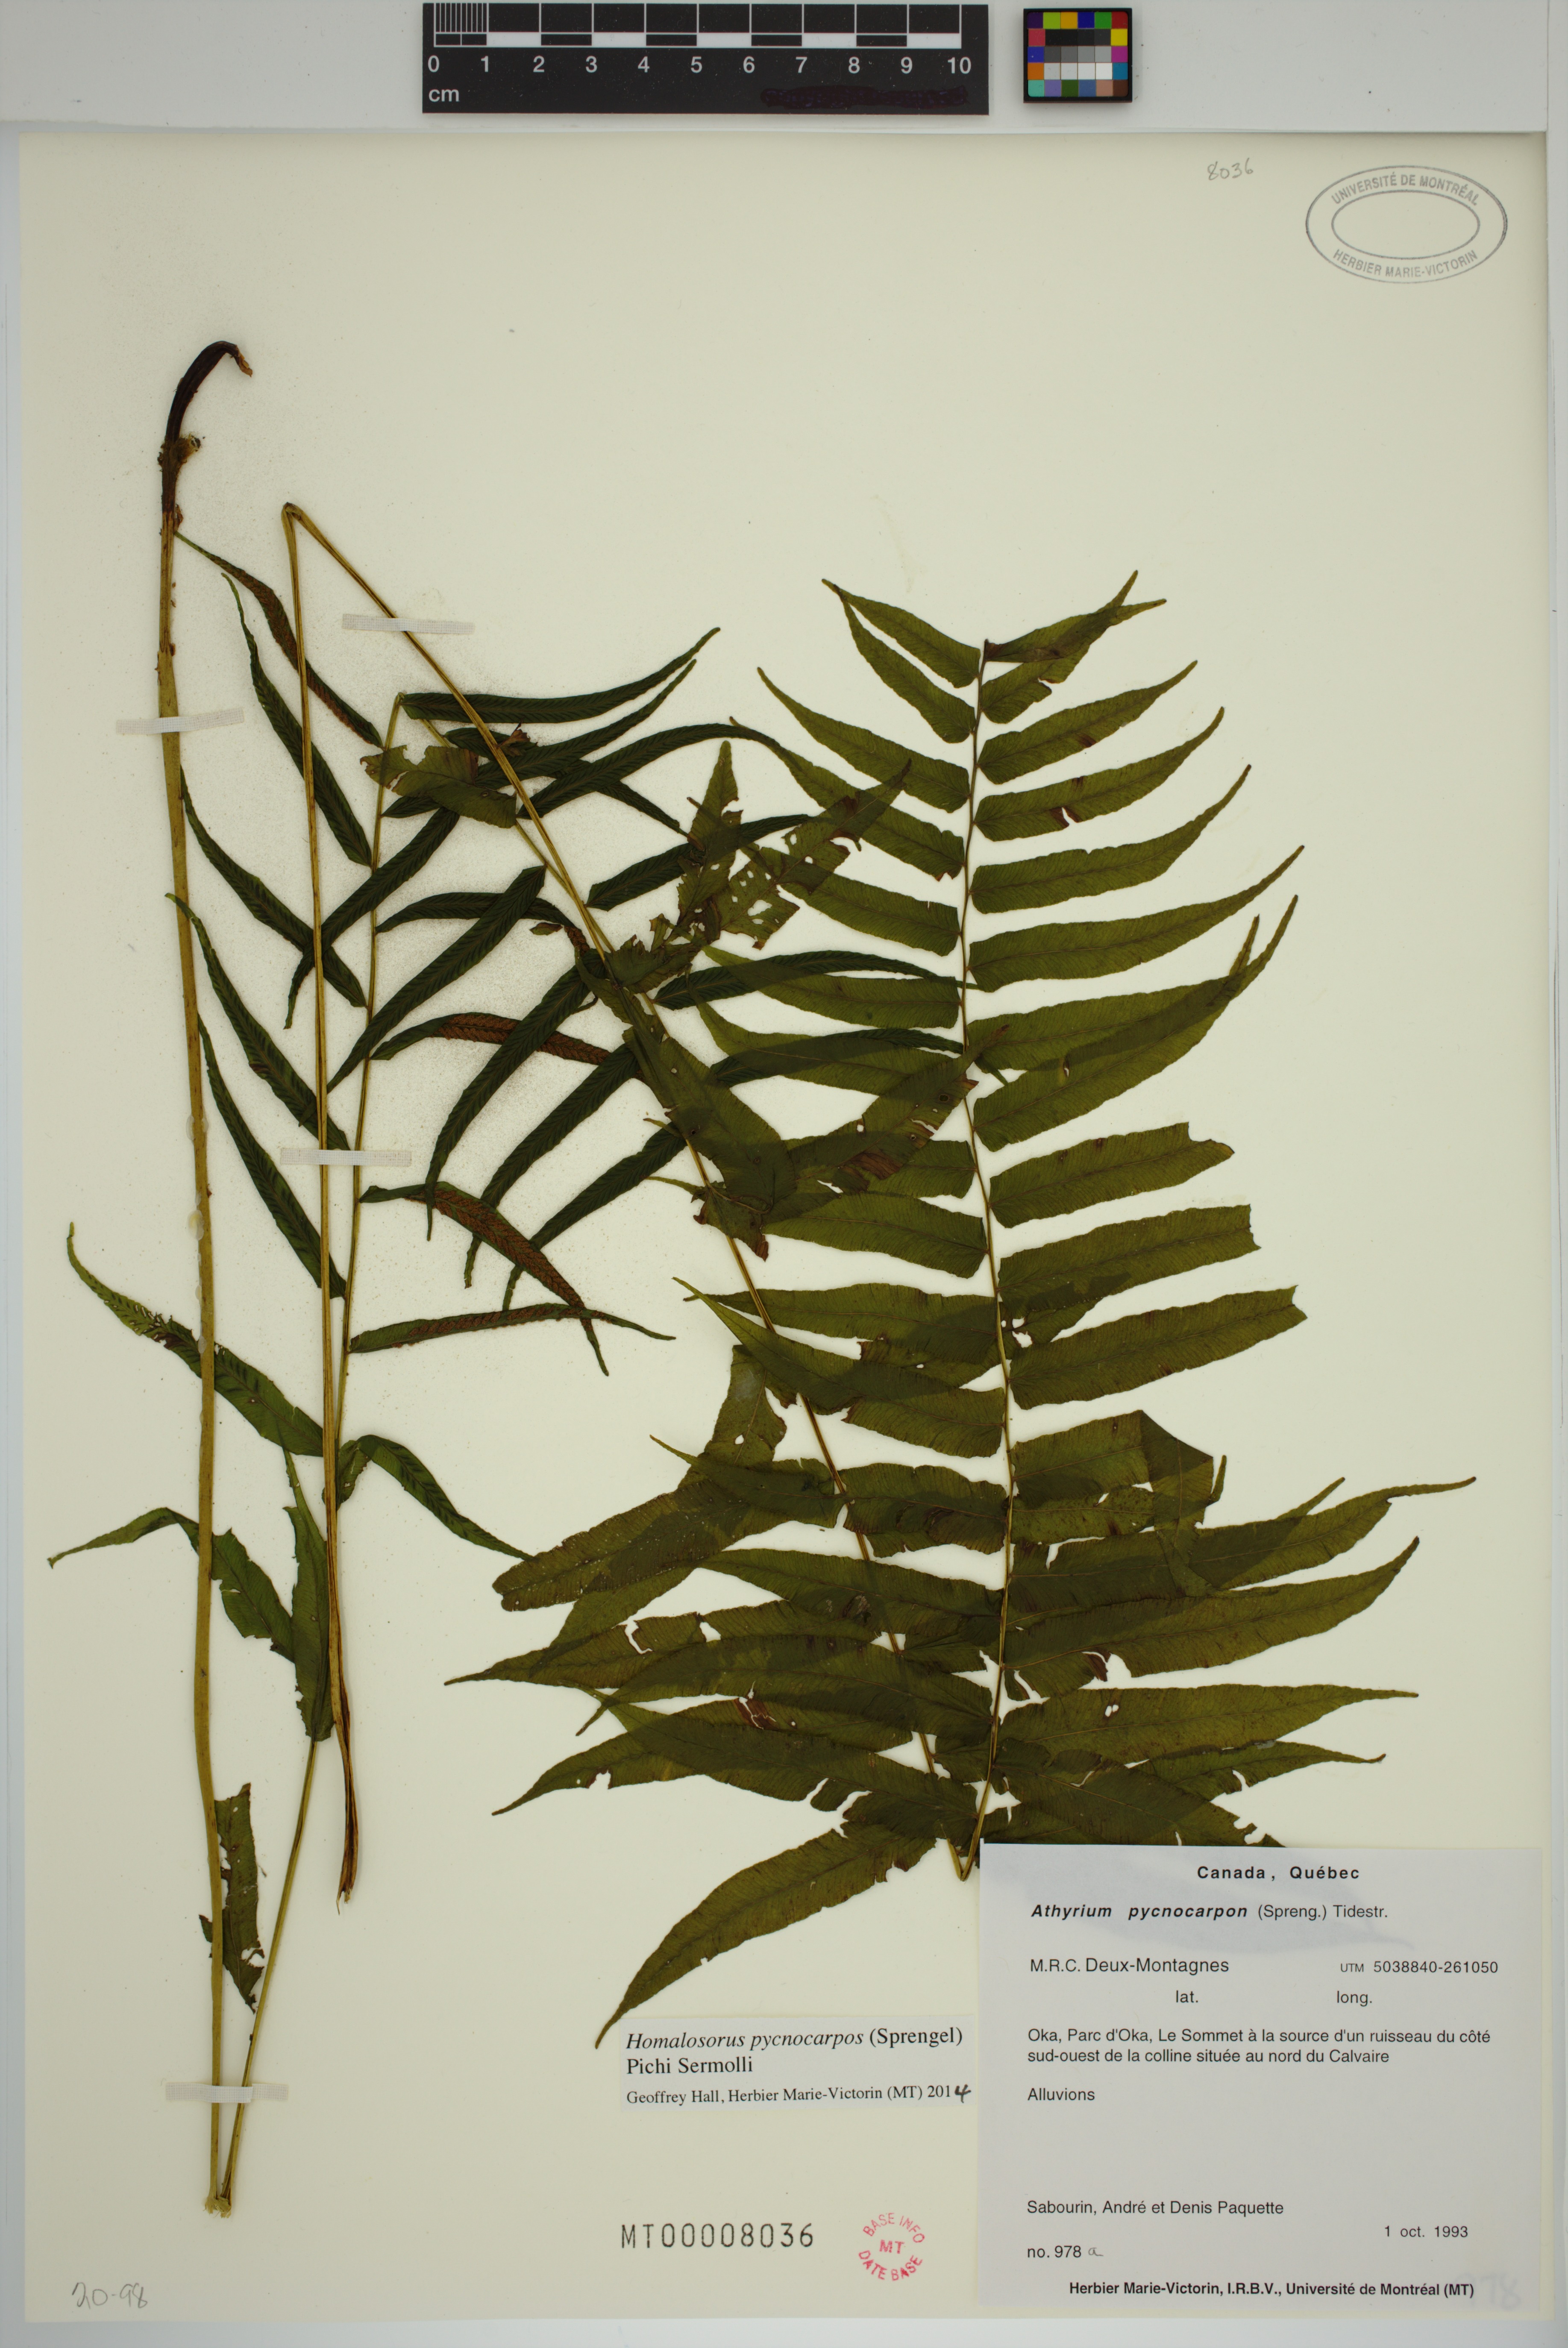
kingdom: Plantae
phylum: Tracheophyta
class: Polypodiopsida
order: Polypodiales
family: Diplaziopsidaceae
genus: Homalosorus
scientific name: Homalosorus pycnocarpos
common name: Glade fern
